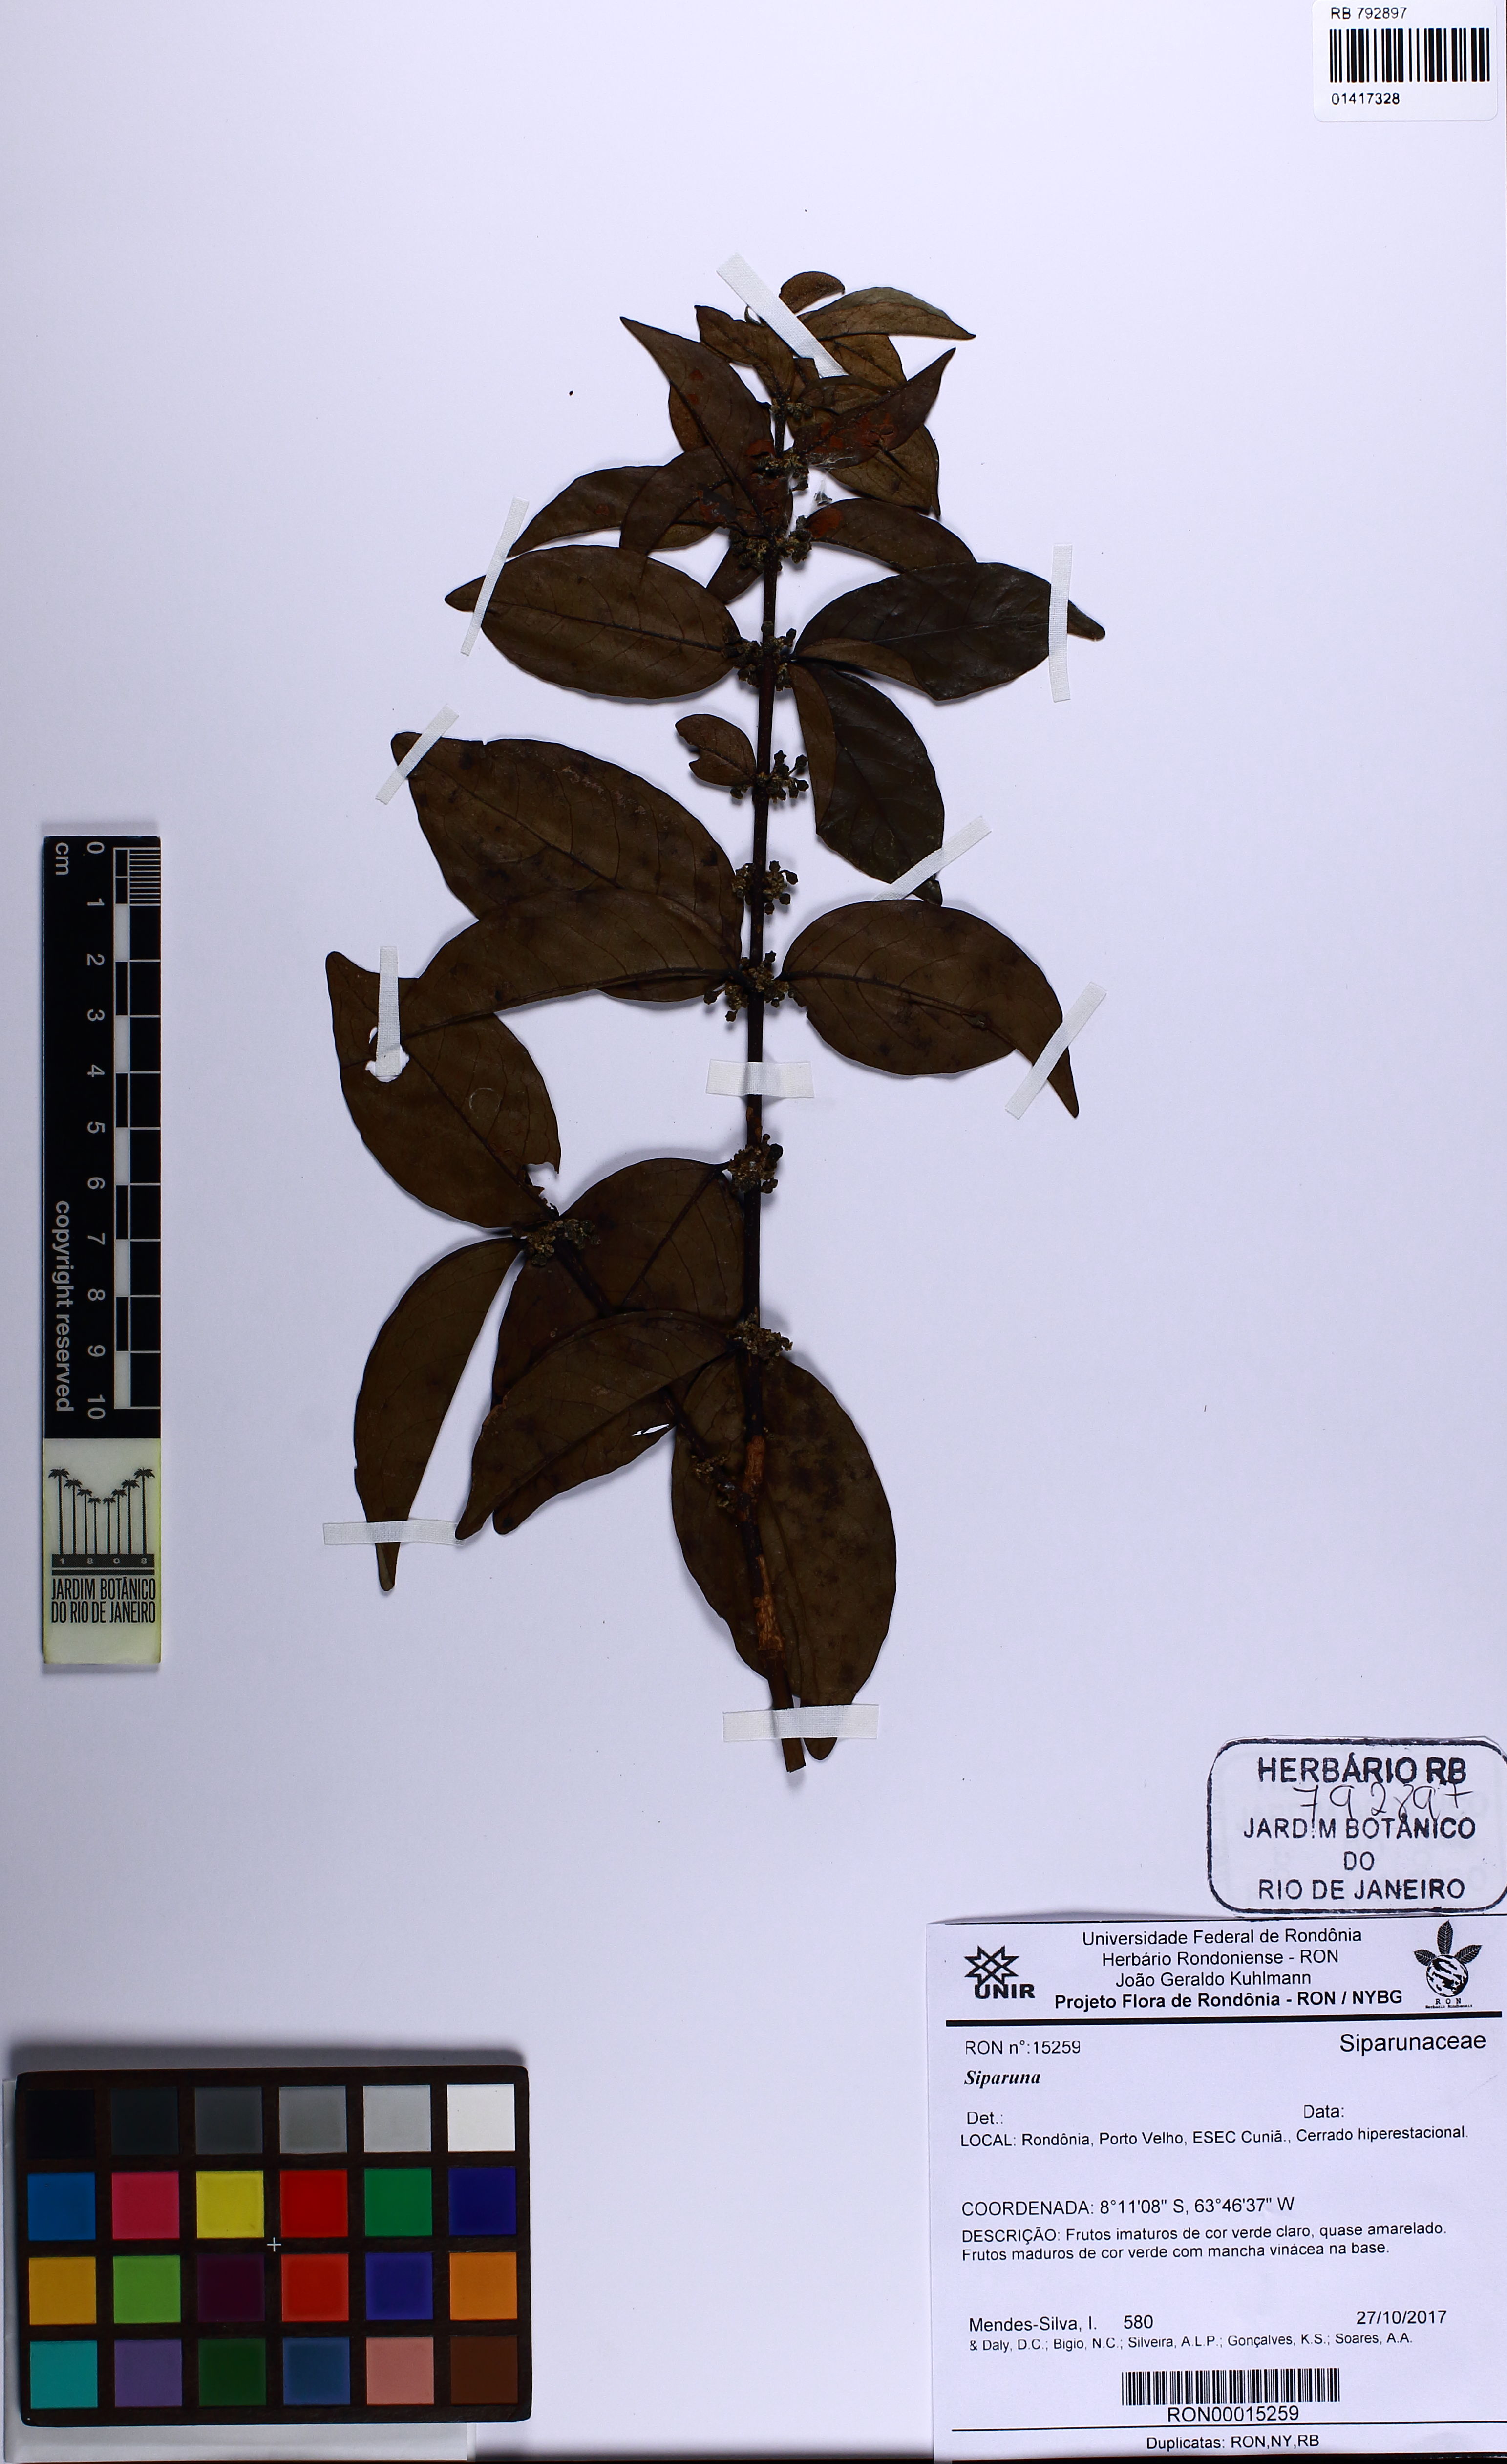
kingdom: Plantae
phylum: Tracheophyta
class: Magnoliopsida
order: Laurales
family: Siparunaceae
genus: Siparuna
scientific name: Siparuna
